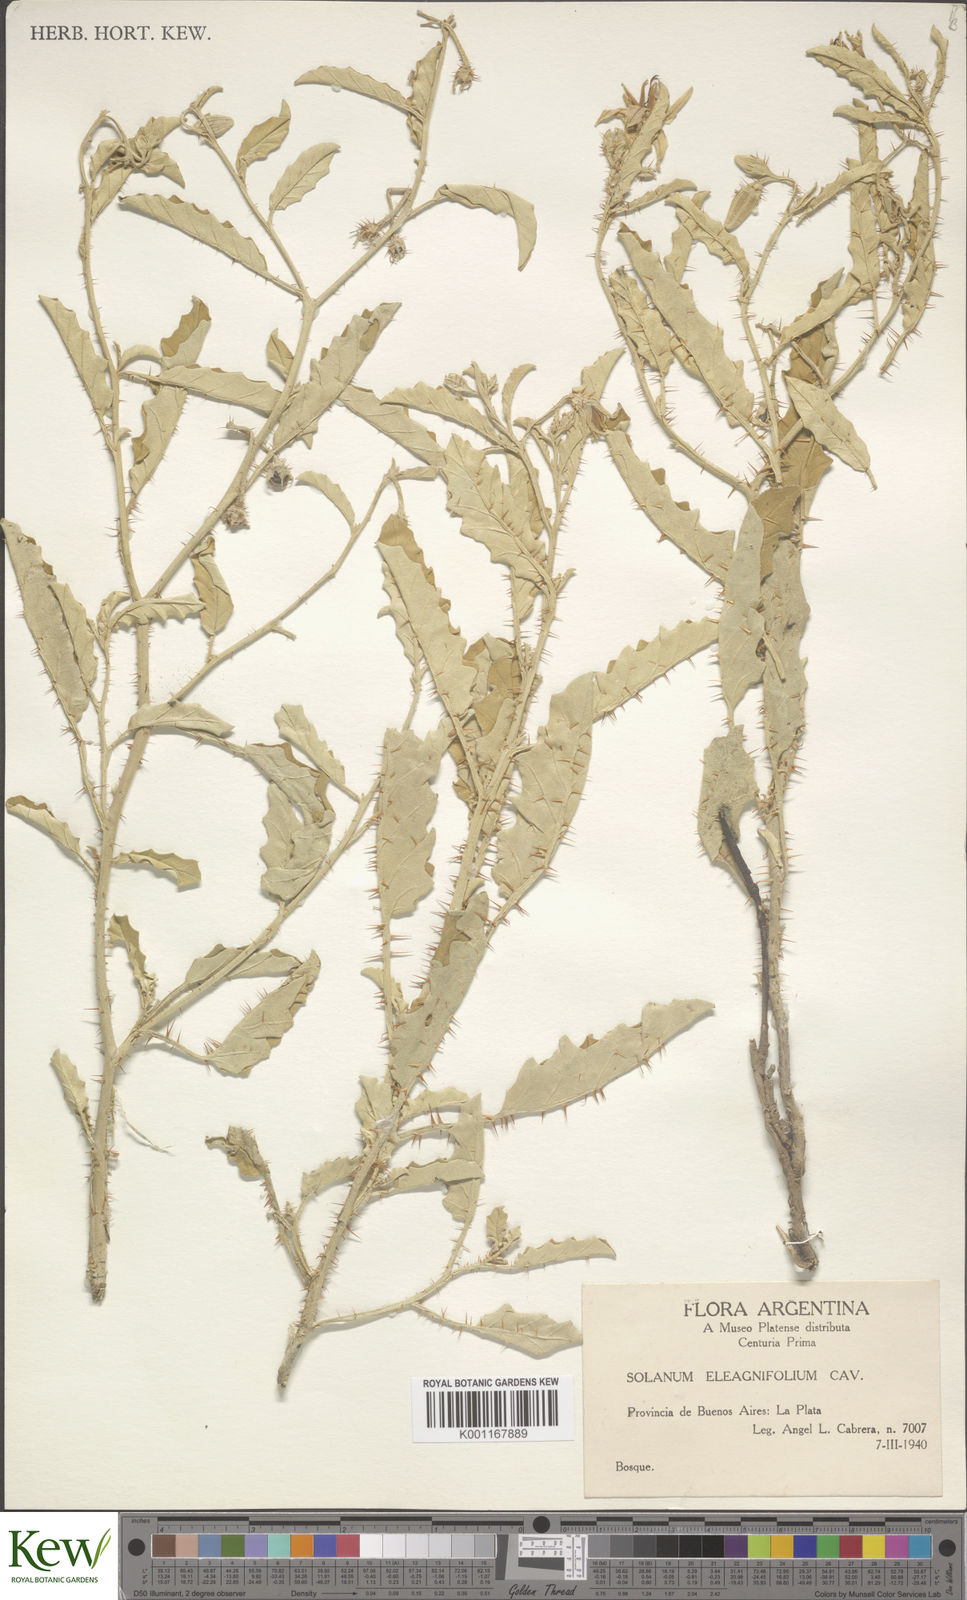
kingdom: Plantae
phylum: Tracheophyta
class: Magnoliopsida
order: Solanales
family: Solanaceae
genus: Solanum
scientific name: Solanum elaeagnifolium
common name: Silverleaf nightshade
